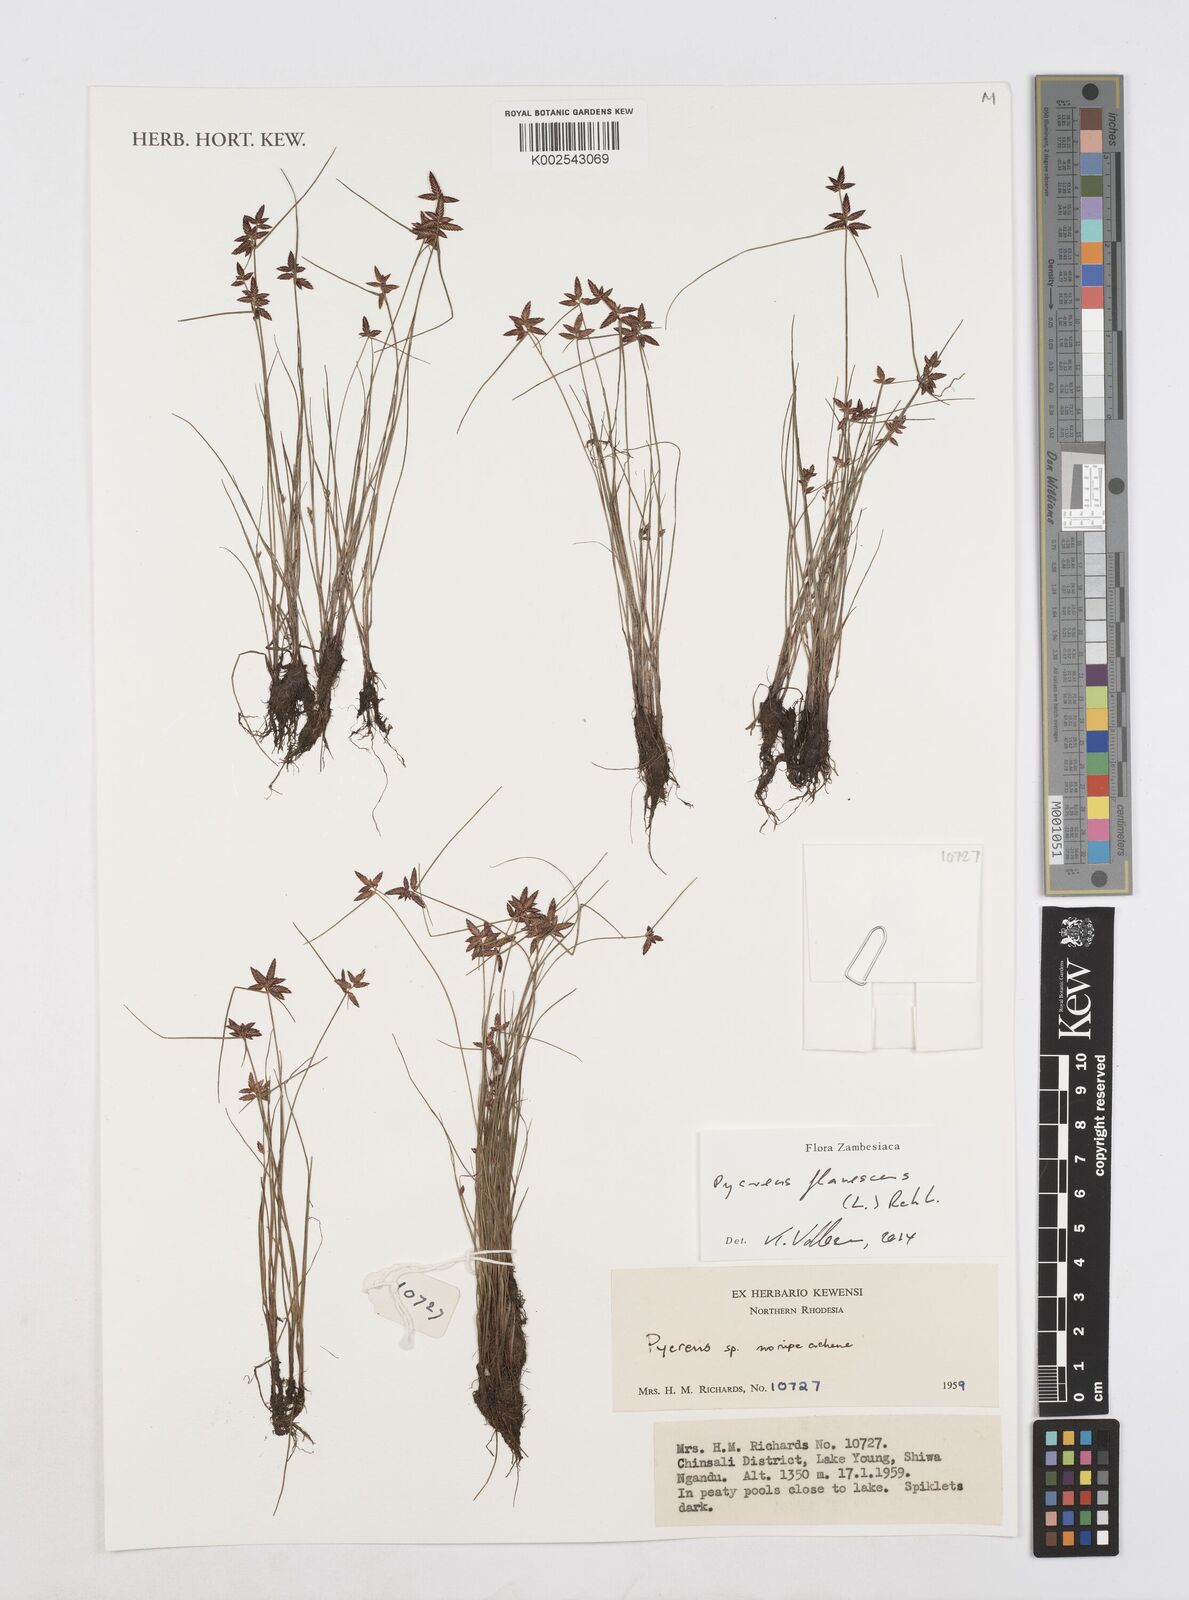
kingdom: Plantae
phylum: Tracheophyta
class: Liliopsida
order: Poales
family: Cyperaceae
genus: Cyperus
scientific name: Cyperus flavescens
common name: Yellow galingale
